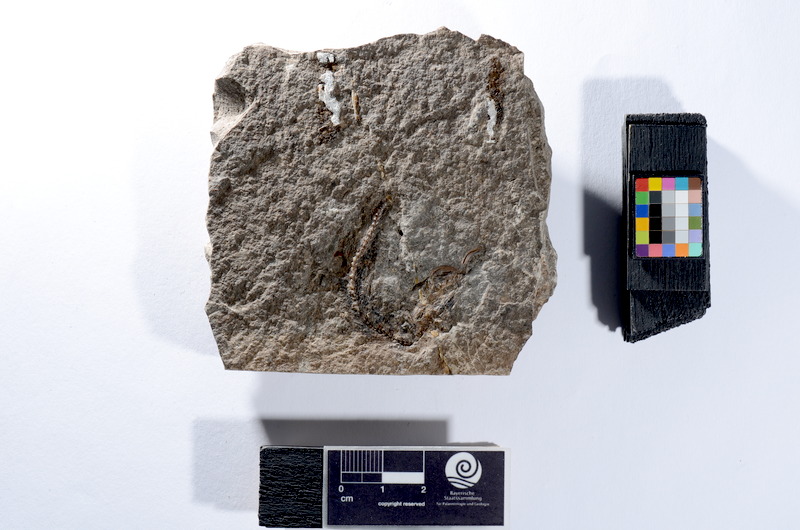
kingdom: Animalia
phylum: Chordata
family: Leptolepididae
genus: Leptolepis
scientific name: Leptolepis coryphaenoides
